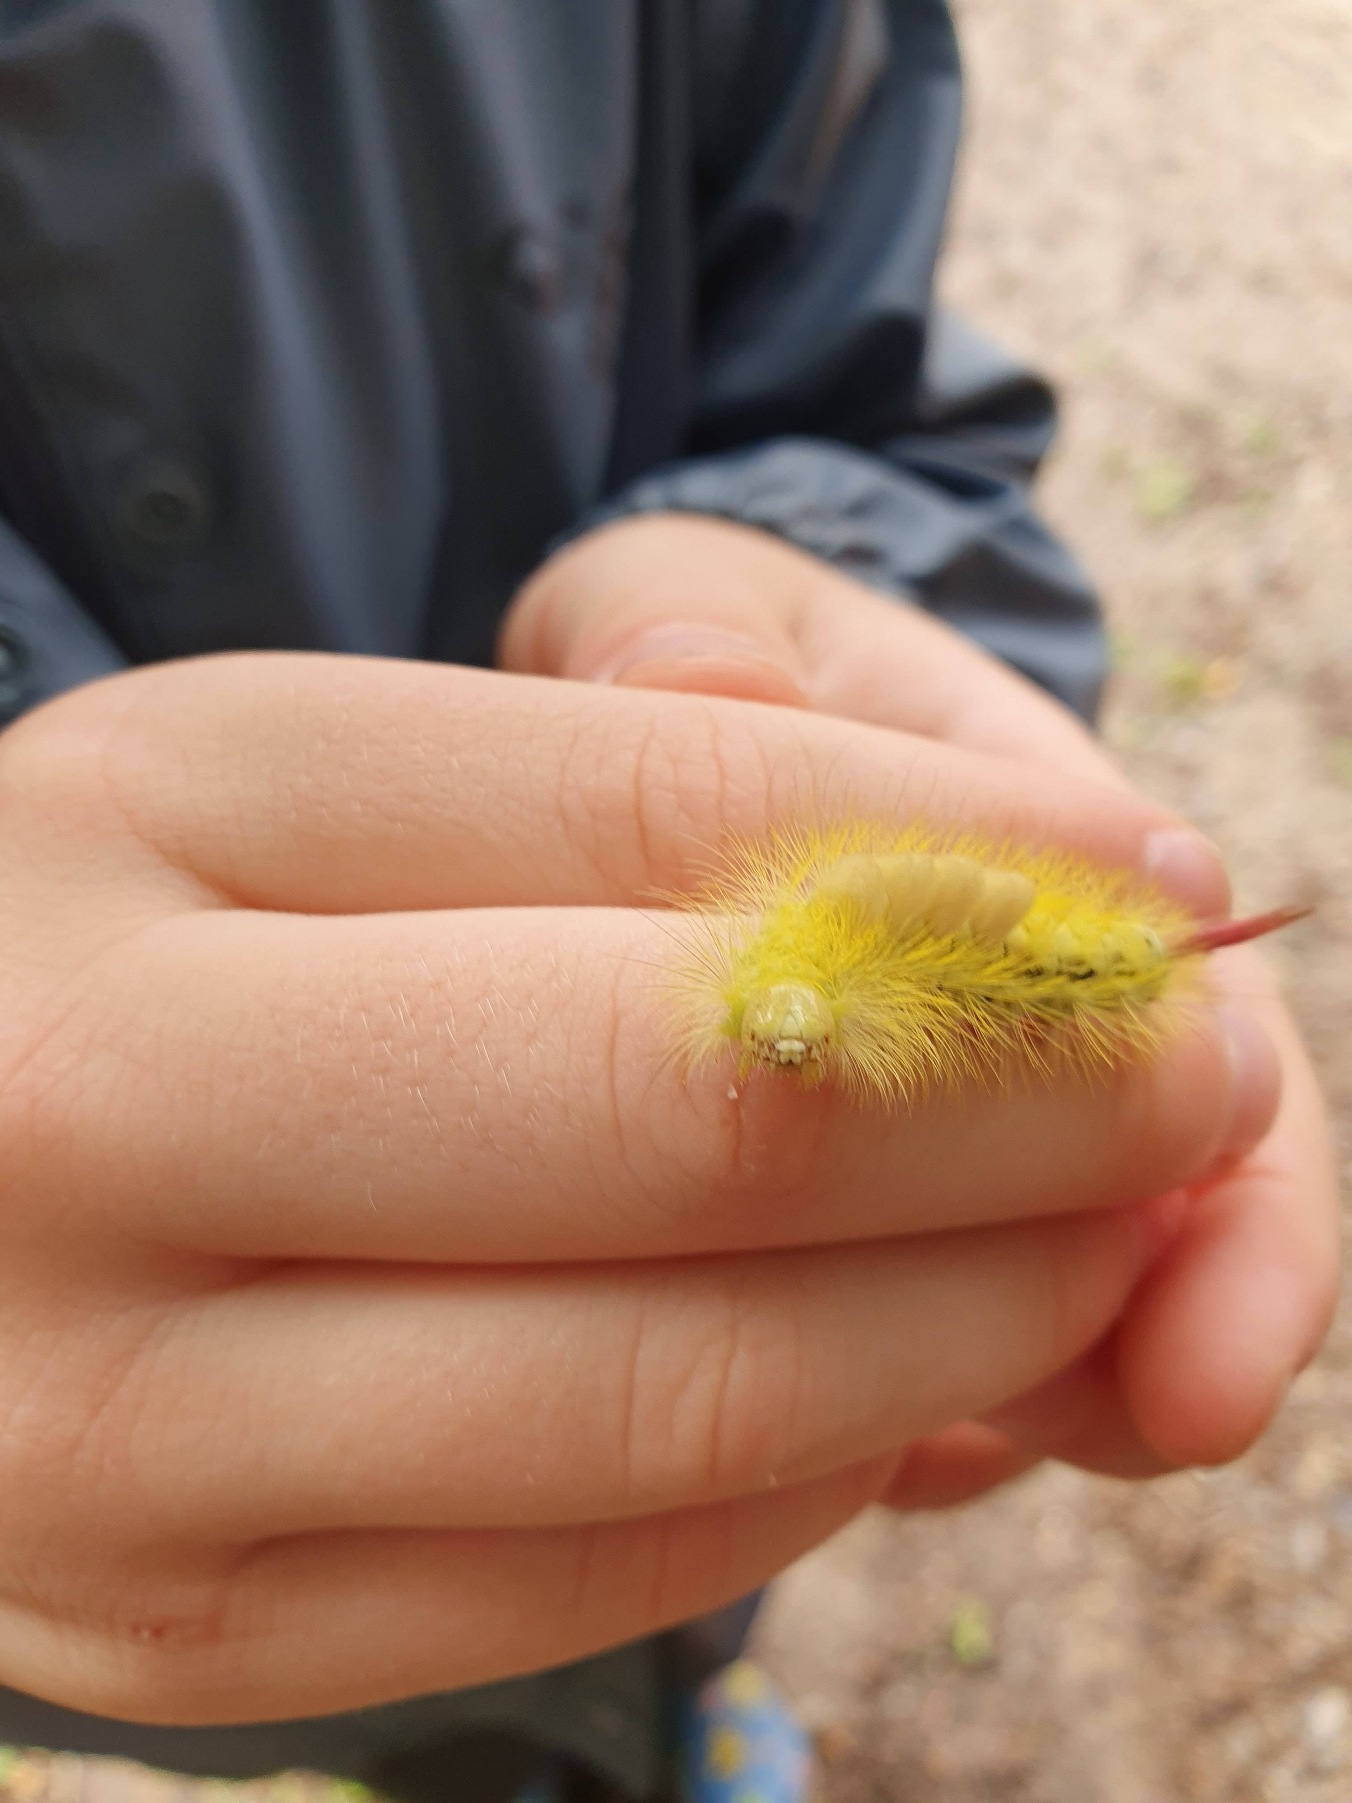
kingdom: Animalia
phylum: Arthropoda
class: Insecta
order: Lepidoptera
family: Erebidae
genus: Calliteara
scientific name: Calliteara pudibunda
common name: Bøgenonne
